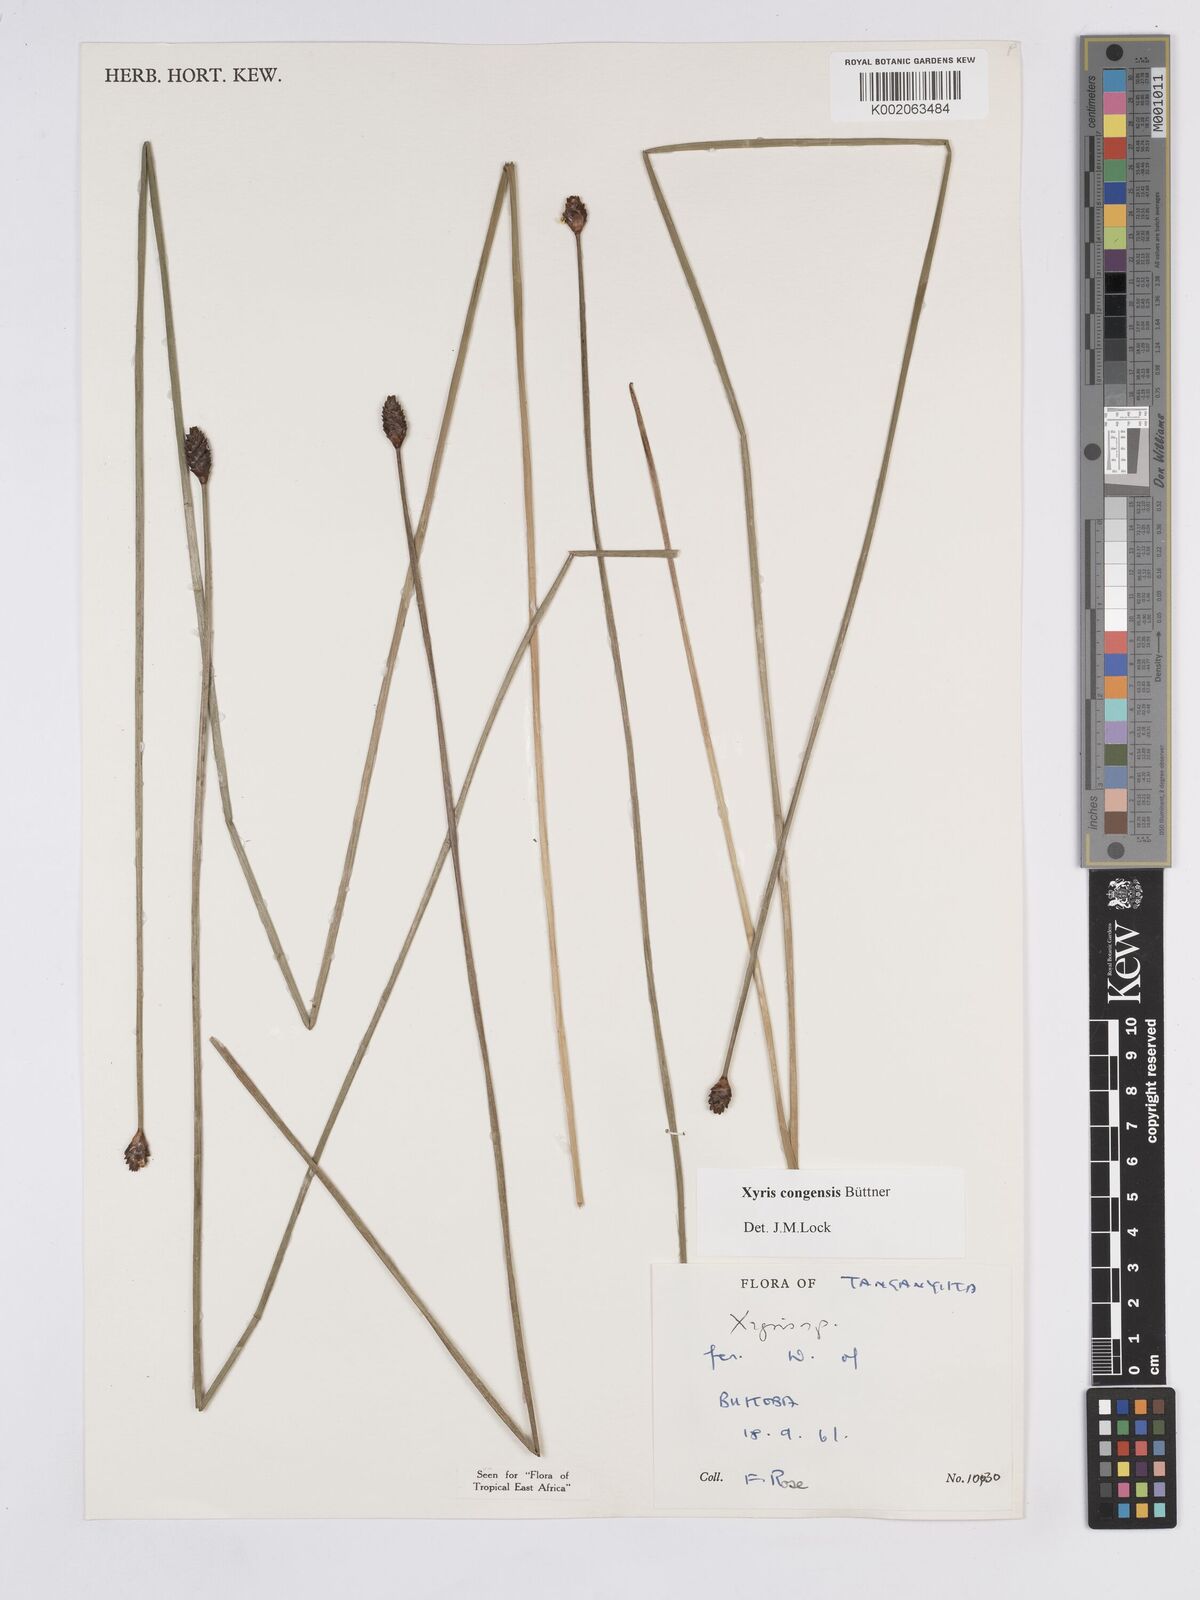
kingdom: Plantae
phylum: Tracheophyta
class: Liliopsida
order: Poales
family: Xyridaceae
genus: Xyris
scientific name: Xyris congensis
